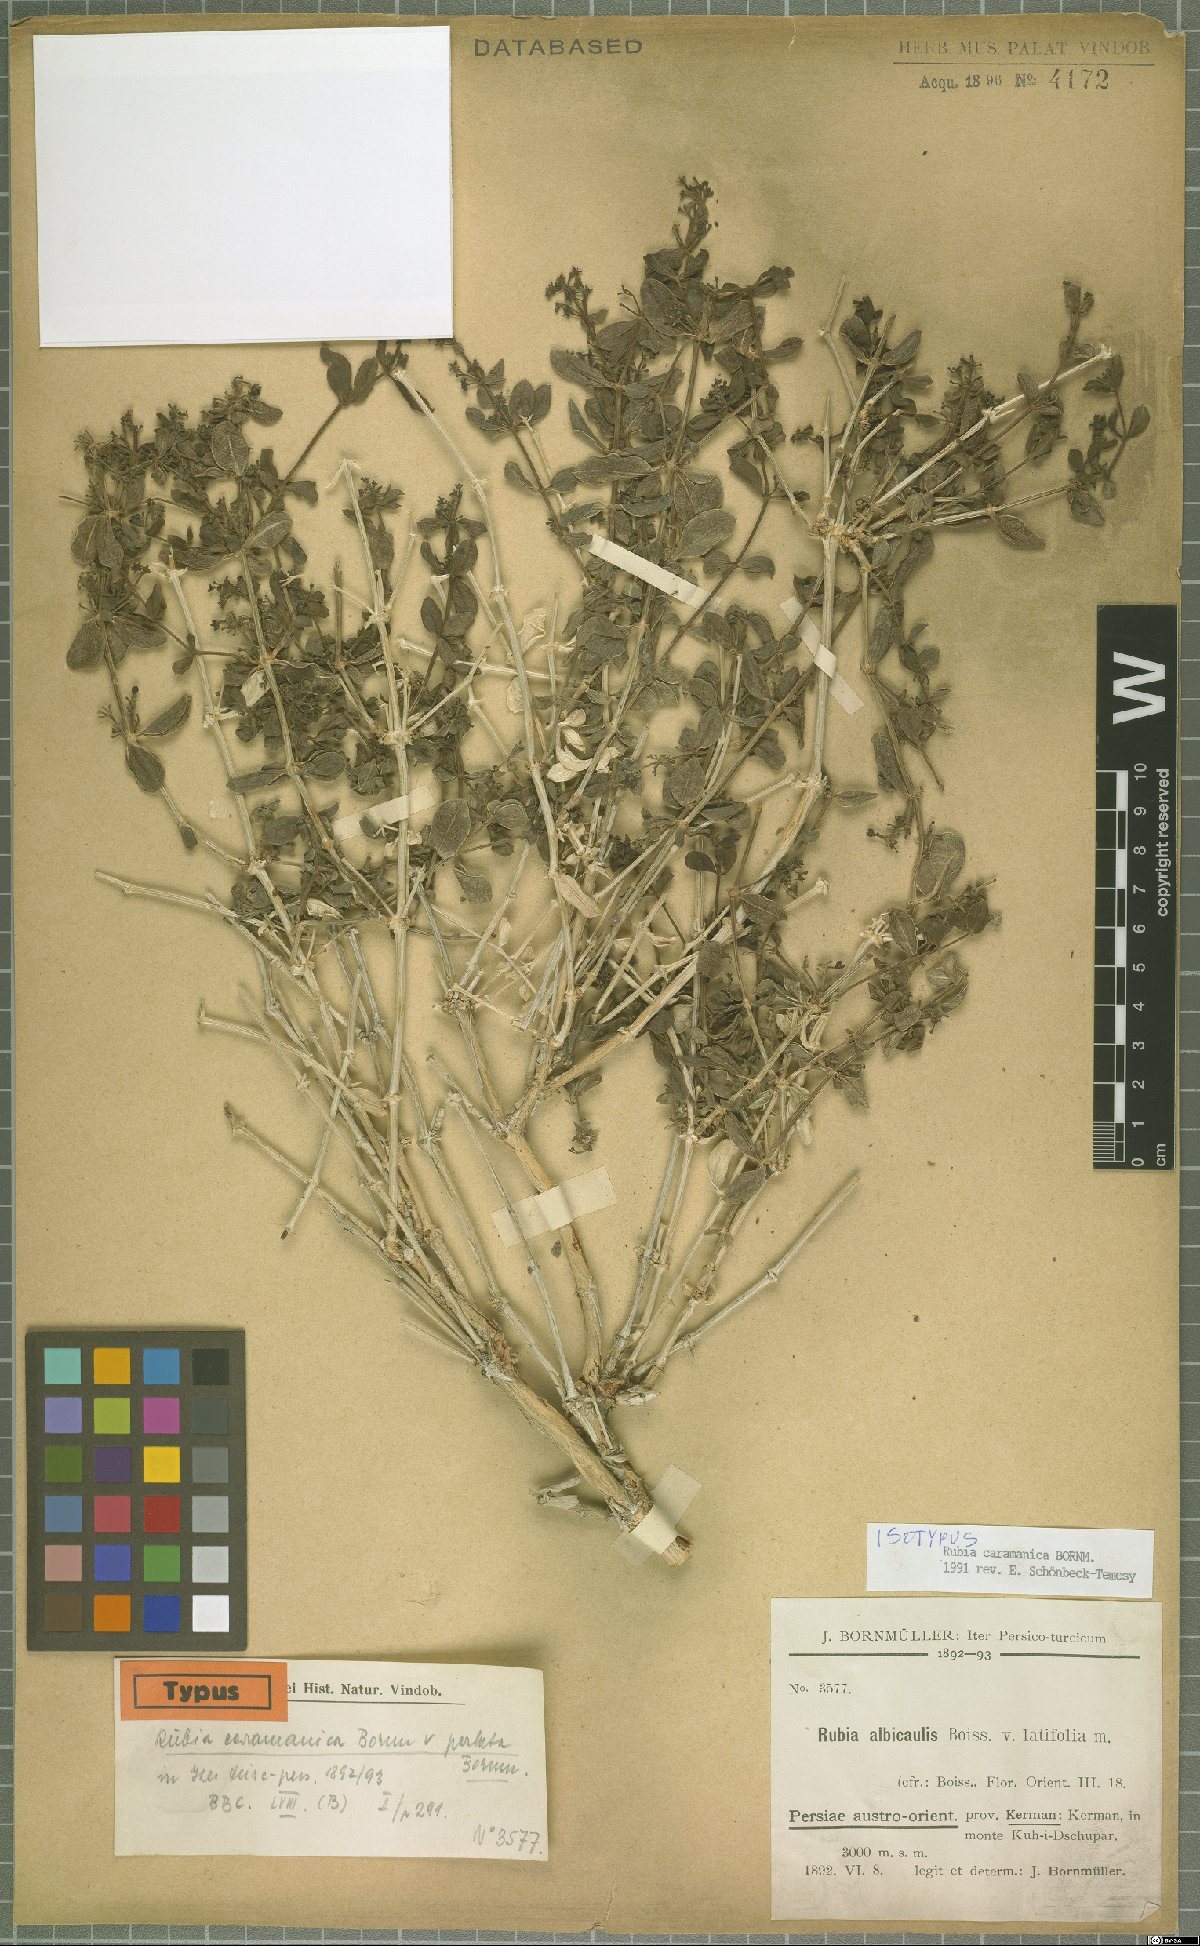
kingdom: Plantae
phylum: Tracheophyta
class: Magnoliopsida
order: Gentianales
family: Rubiaceae
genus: Rubia
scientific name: Rubia caramanica
